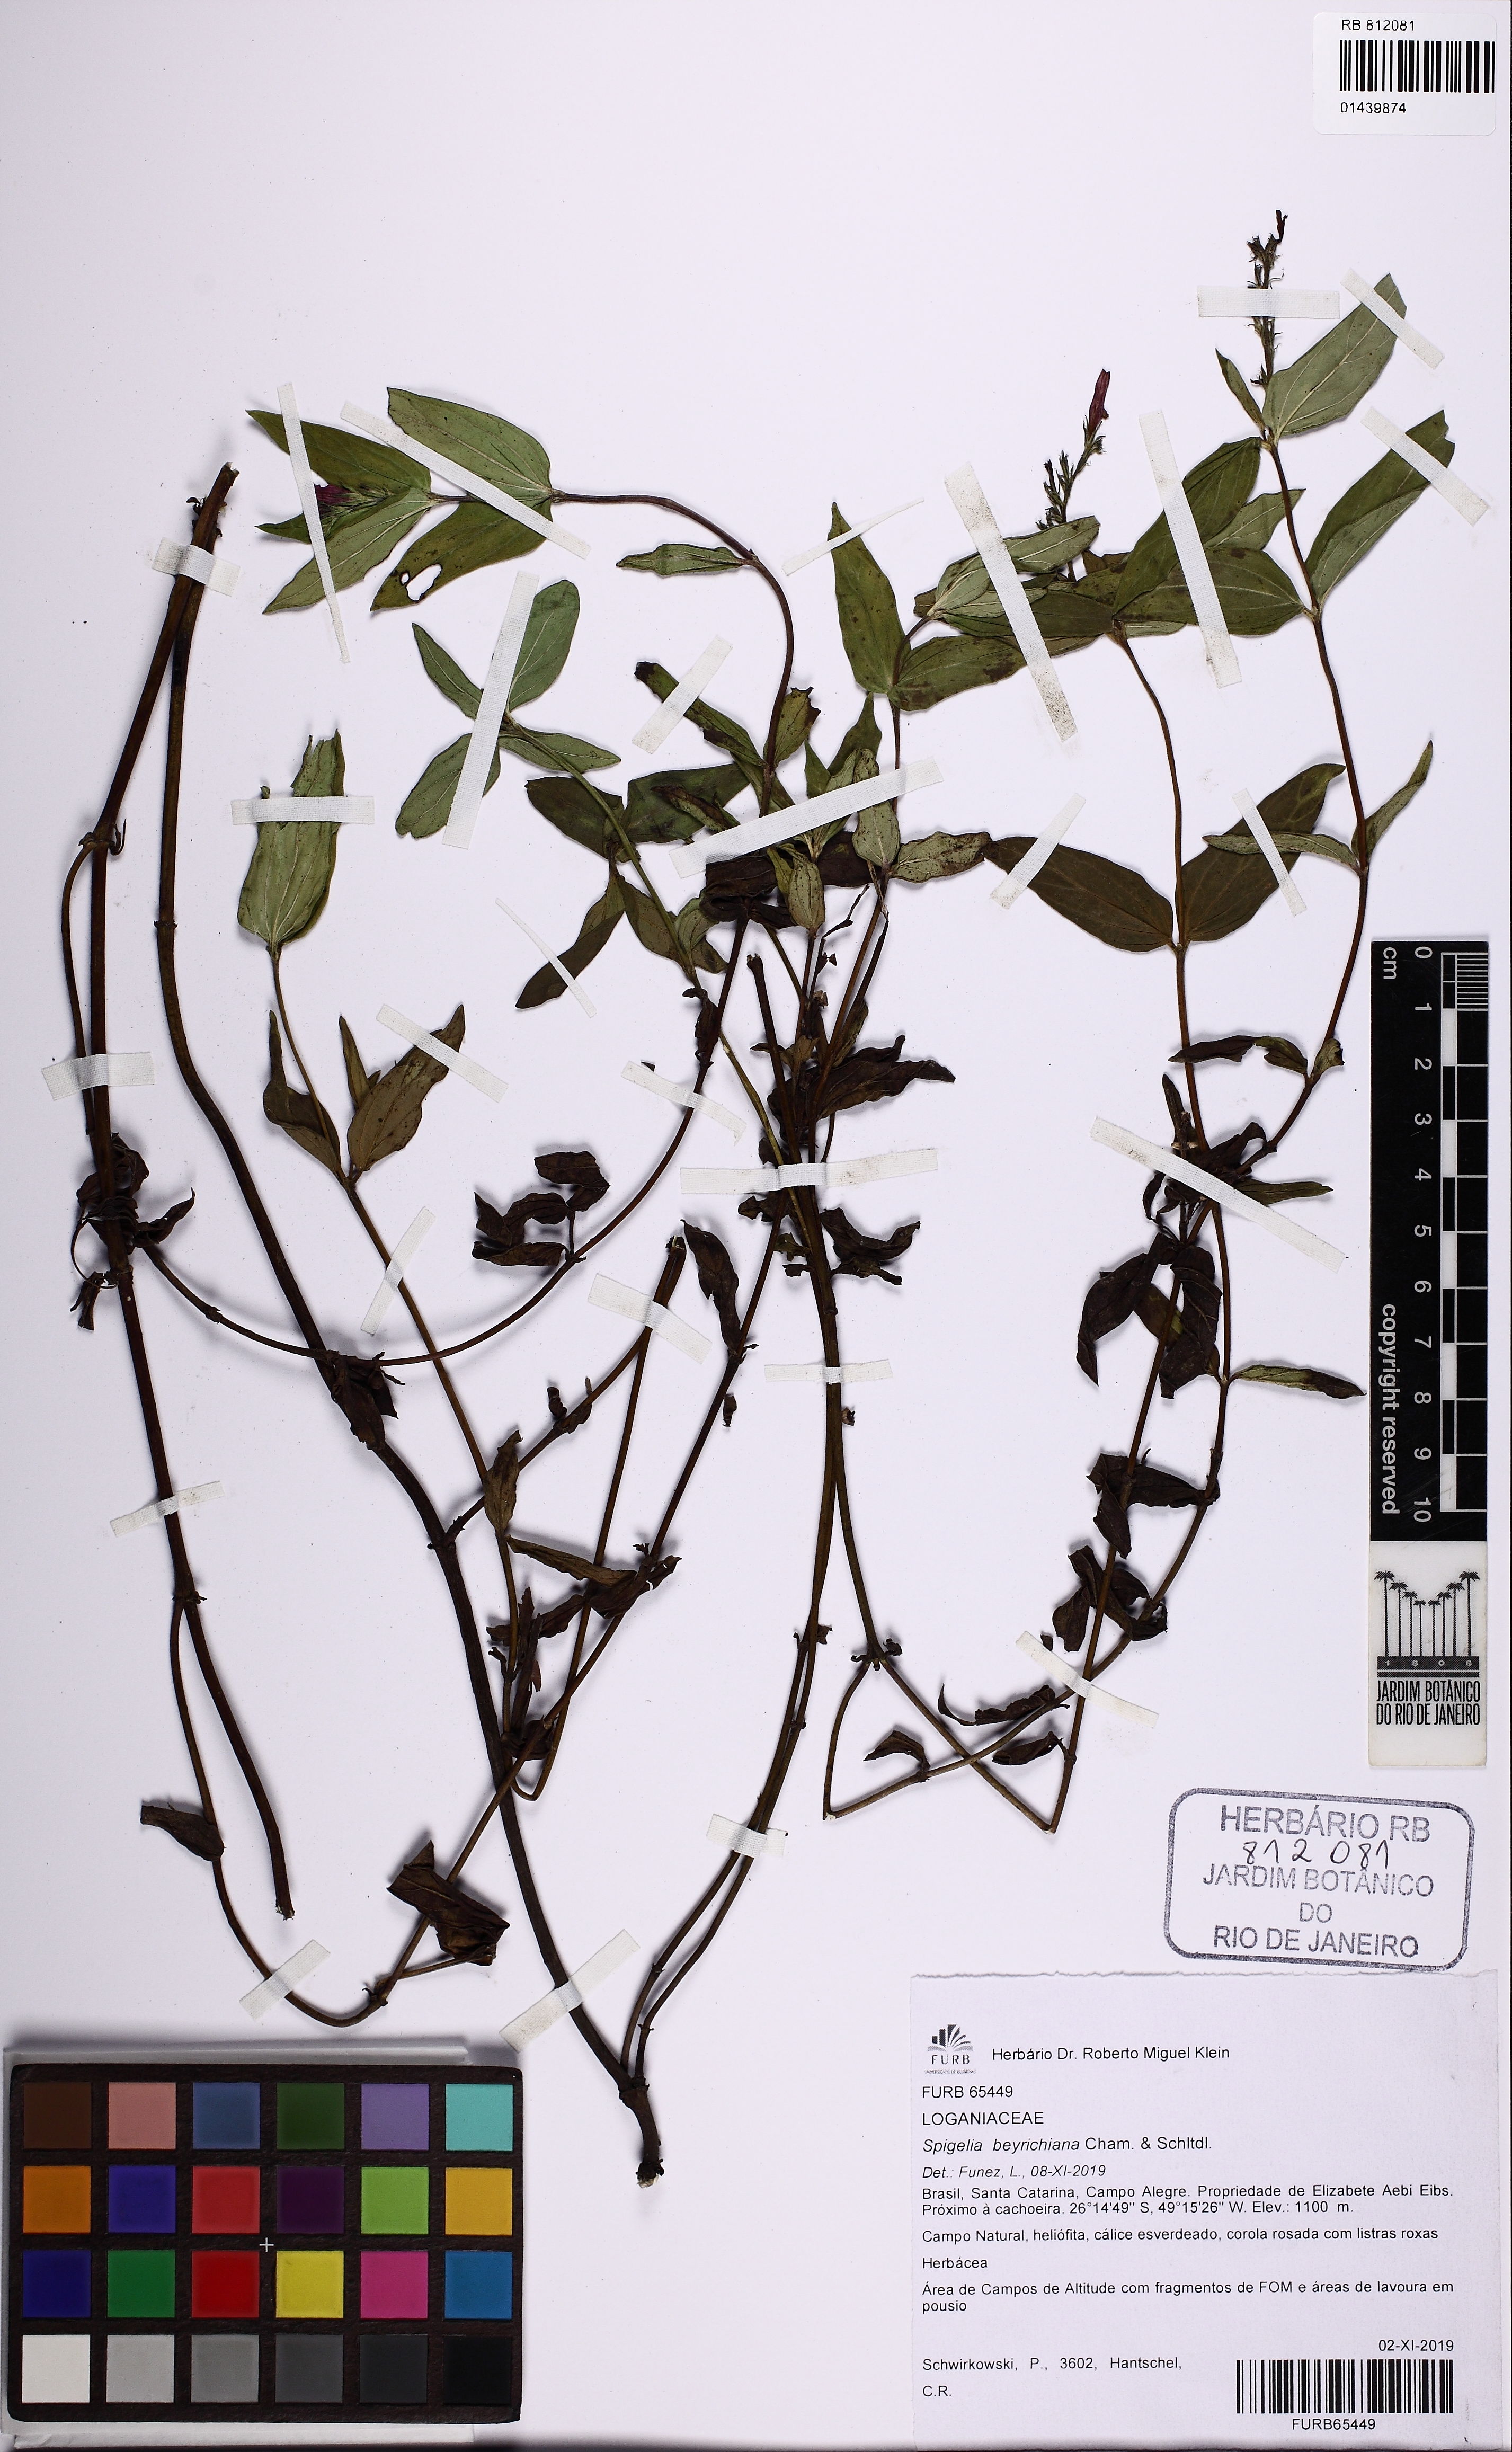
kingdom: Plantae
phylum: Tracheophyta
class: Magnoliopsida
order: Gentianales
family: Loganiaceae
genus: Spigelia
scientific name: Spigelia beyrichiana
